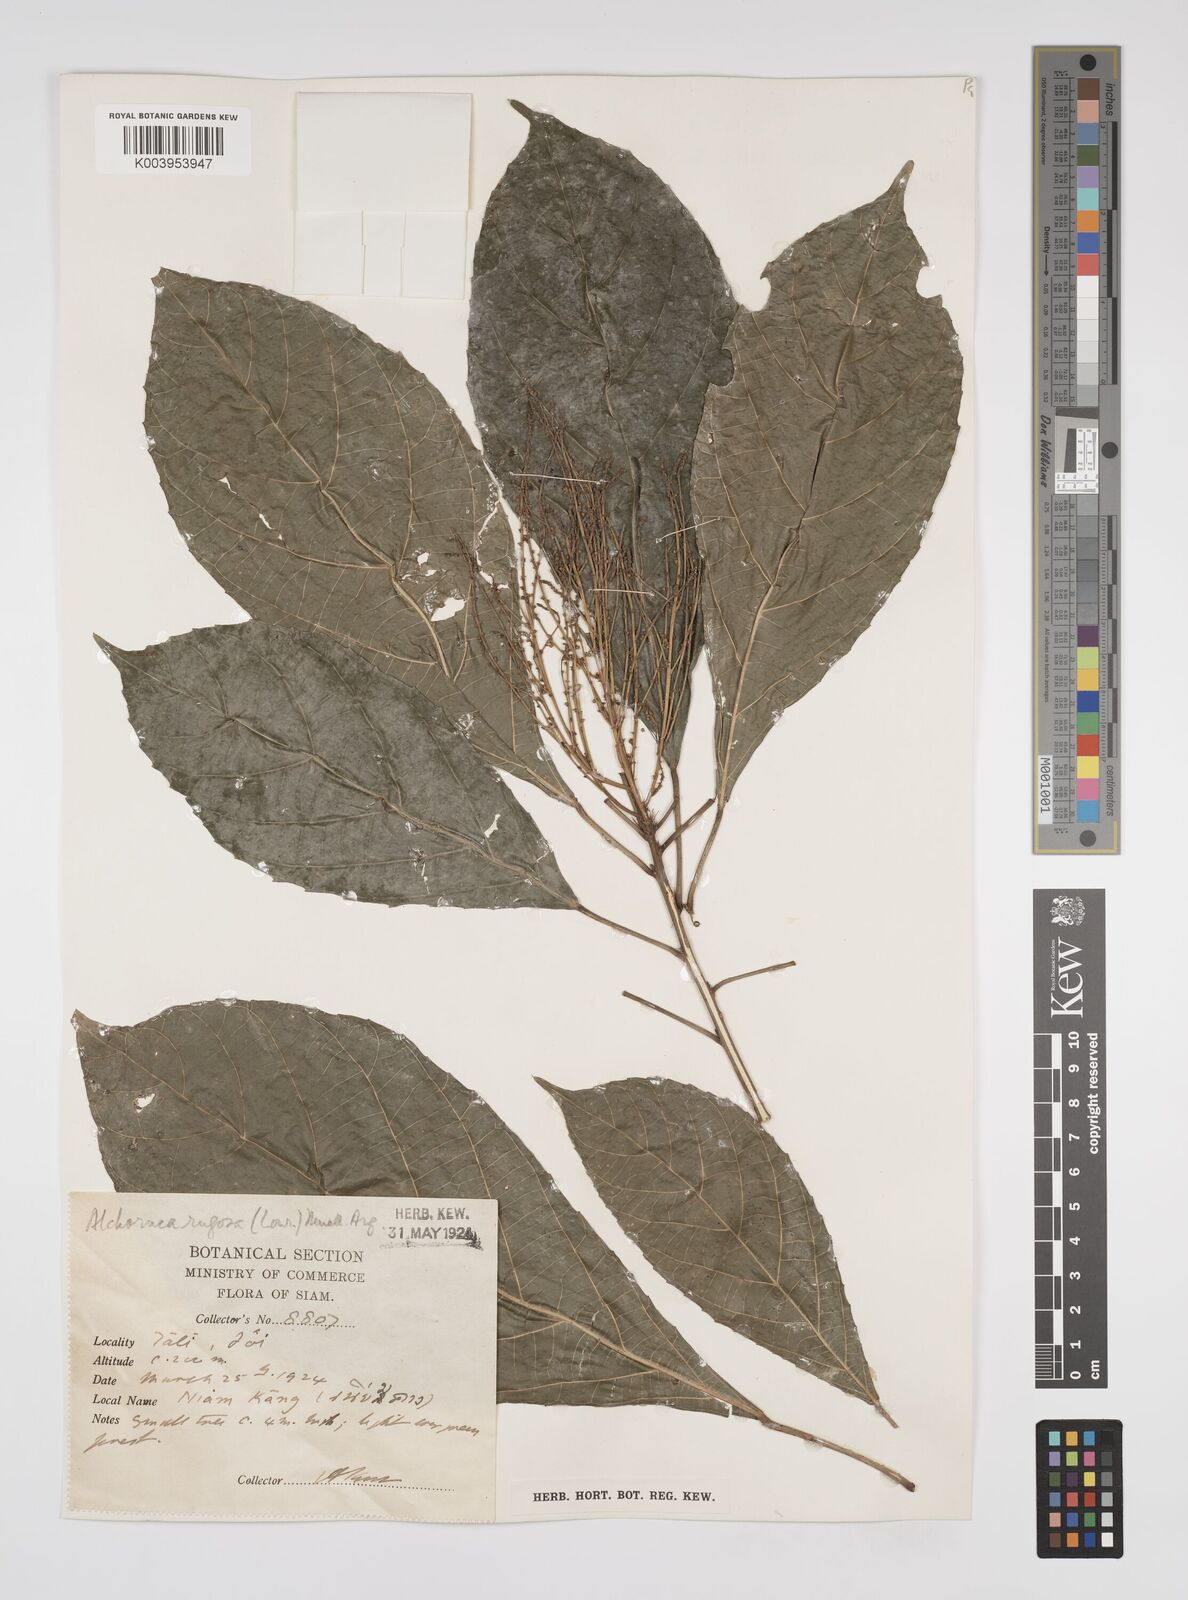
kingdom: Plantae
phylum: Tracheophyta
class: Magnoliopsida
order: Malpighiales
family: Euphorbiaceae
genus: Alchornea
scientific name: Alchornea rugosa
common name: Alchorntree
